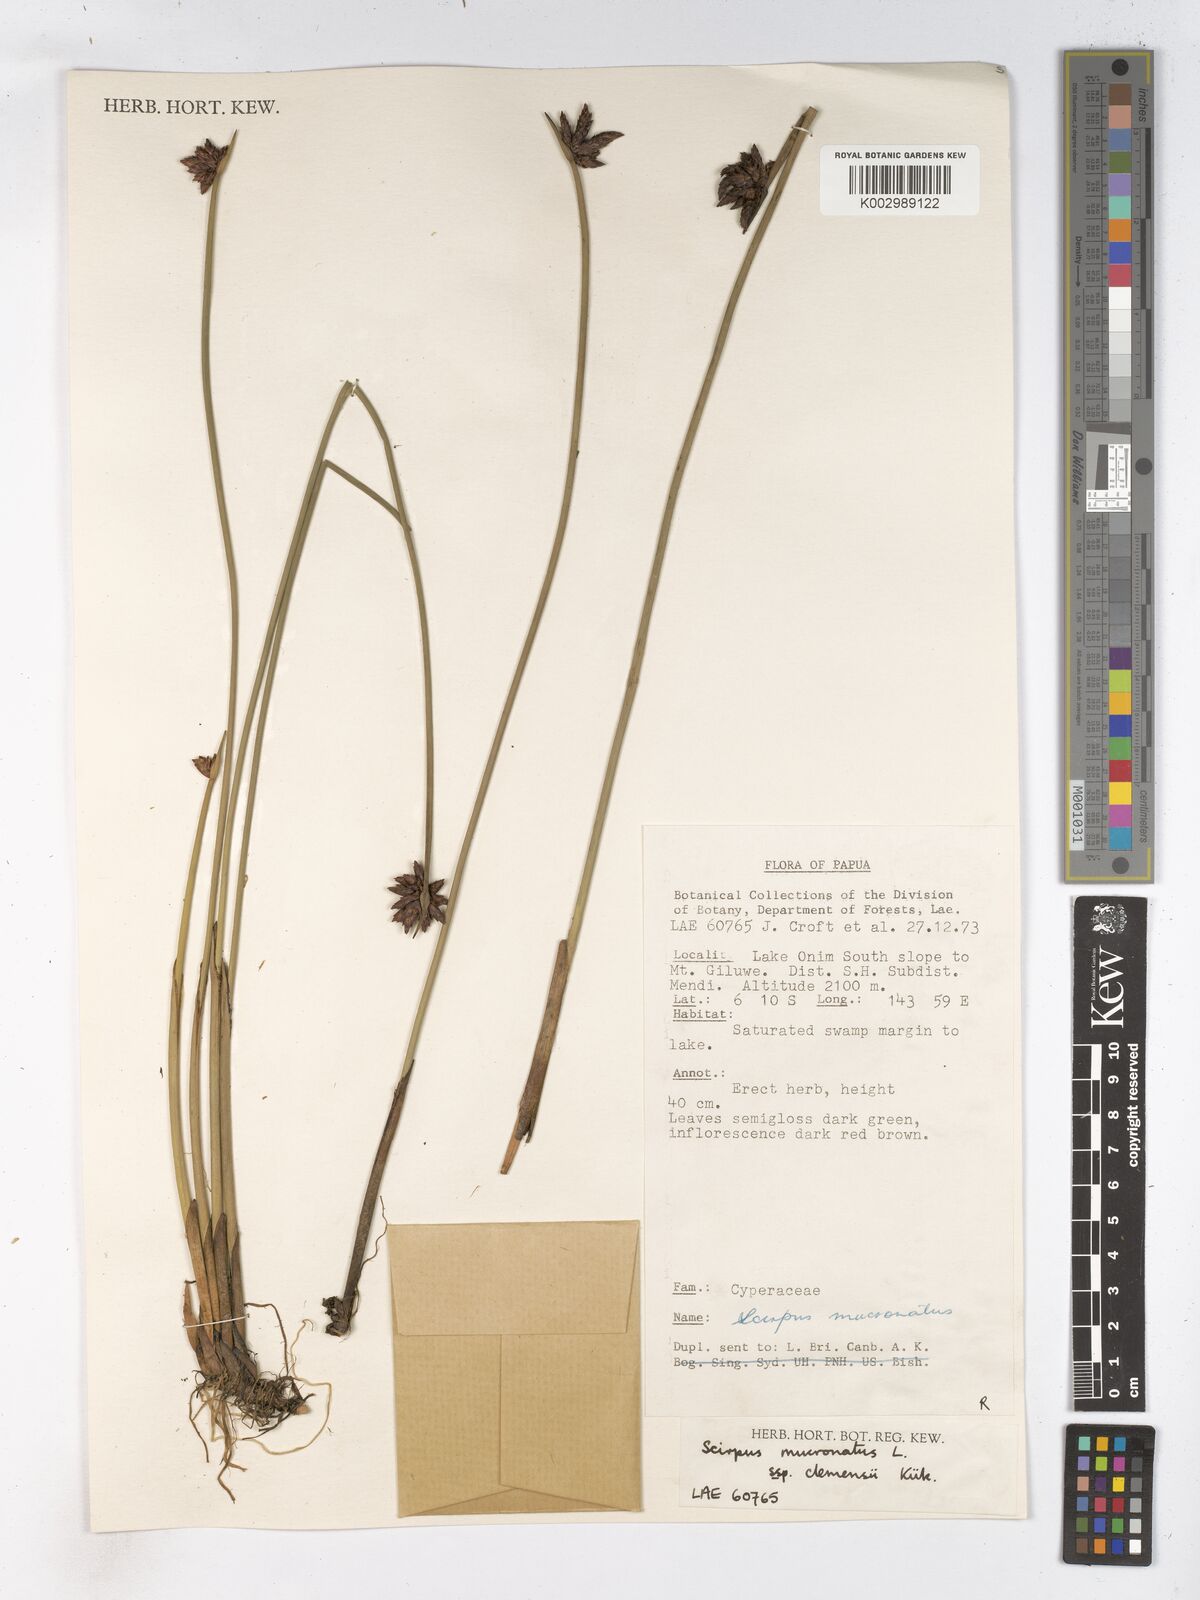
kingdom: Plantae
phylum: Tracheophyta
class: Liliopsida
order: Poales
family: Cyperaceae
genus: Schoenoplectiella
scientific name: Schoenoplectiella clemensiae
